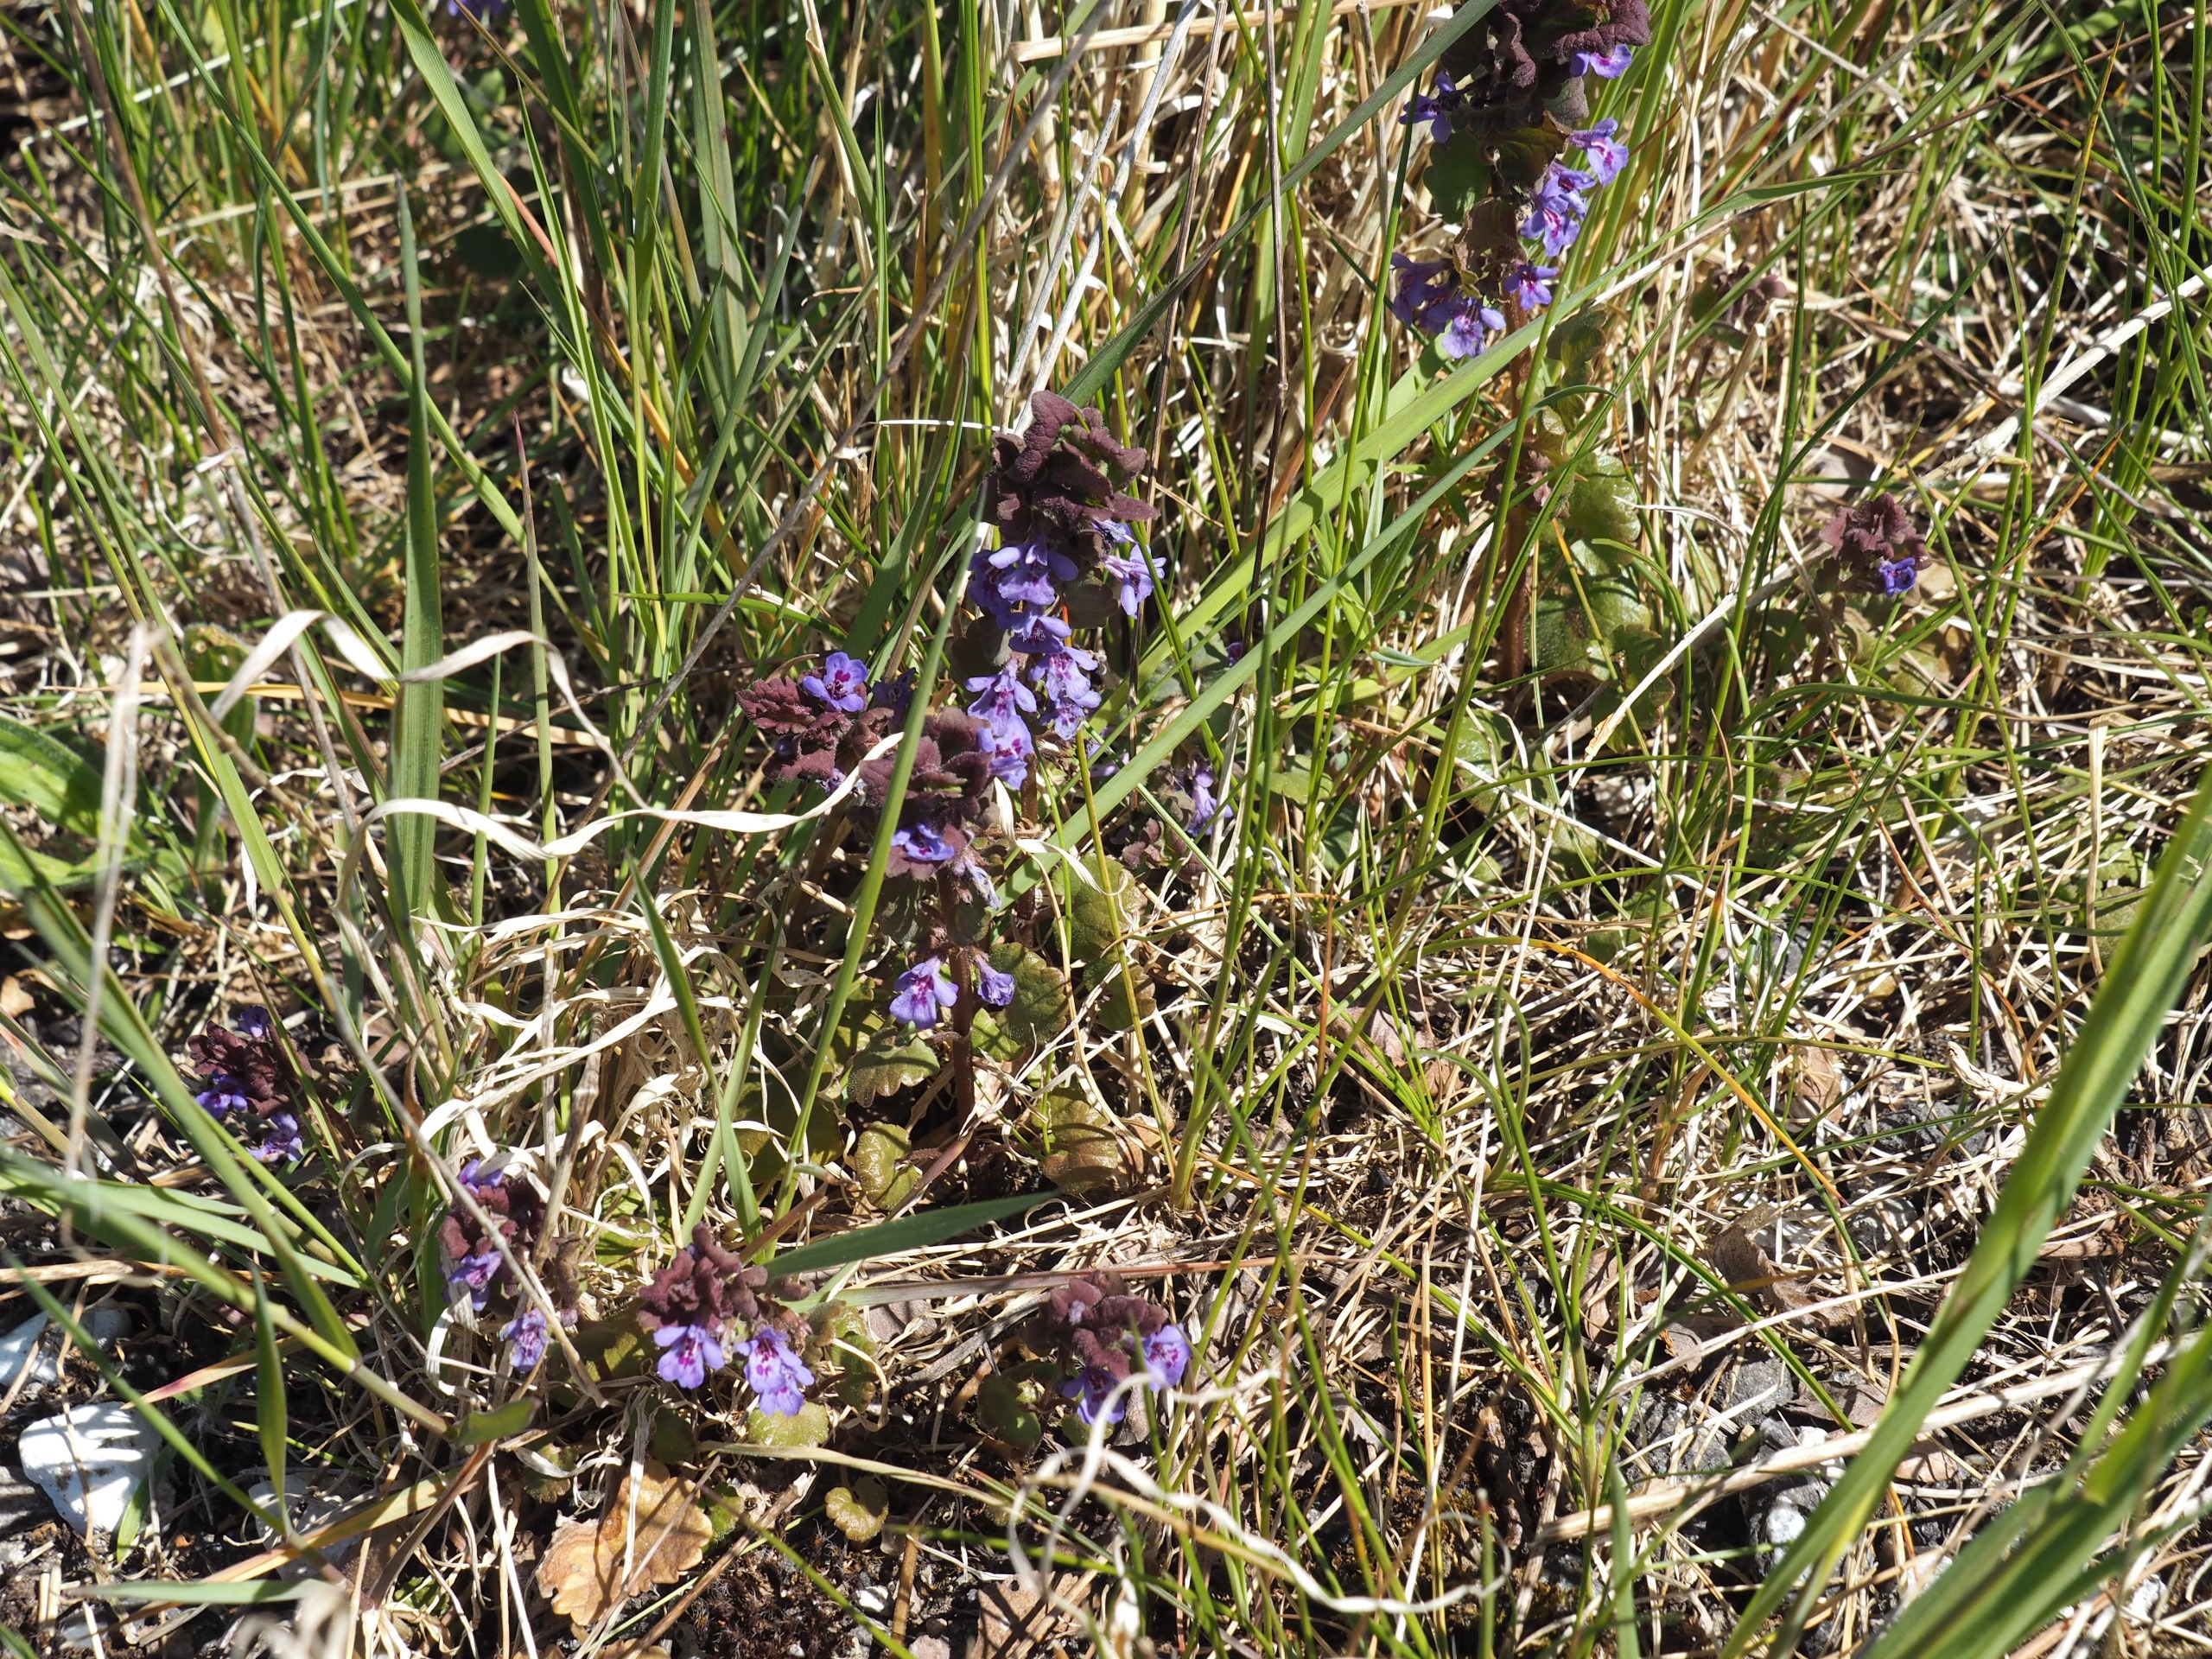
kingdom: Plantae
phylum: Tracheophyta
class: Magnoliopsida
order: Lamiales
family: Lamiaceae
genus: Glechoma
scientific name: Glechoma hederacea
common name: Korsknap
